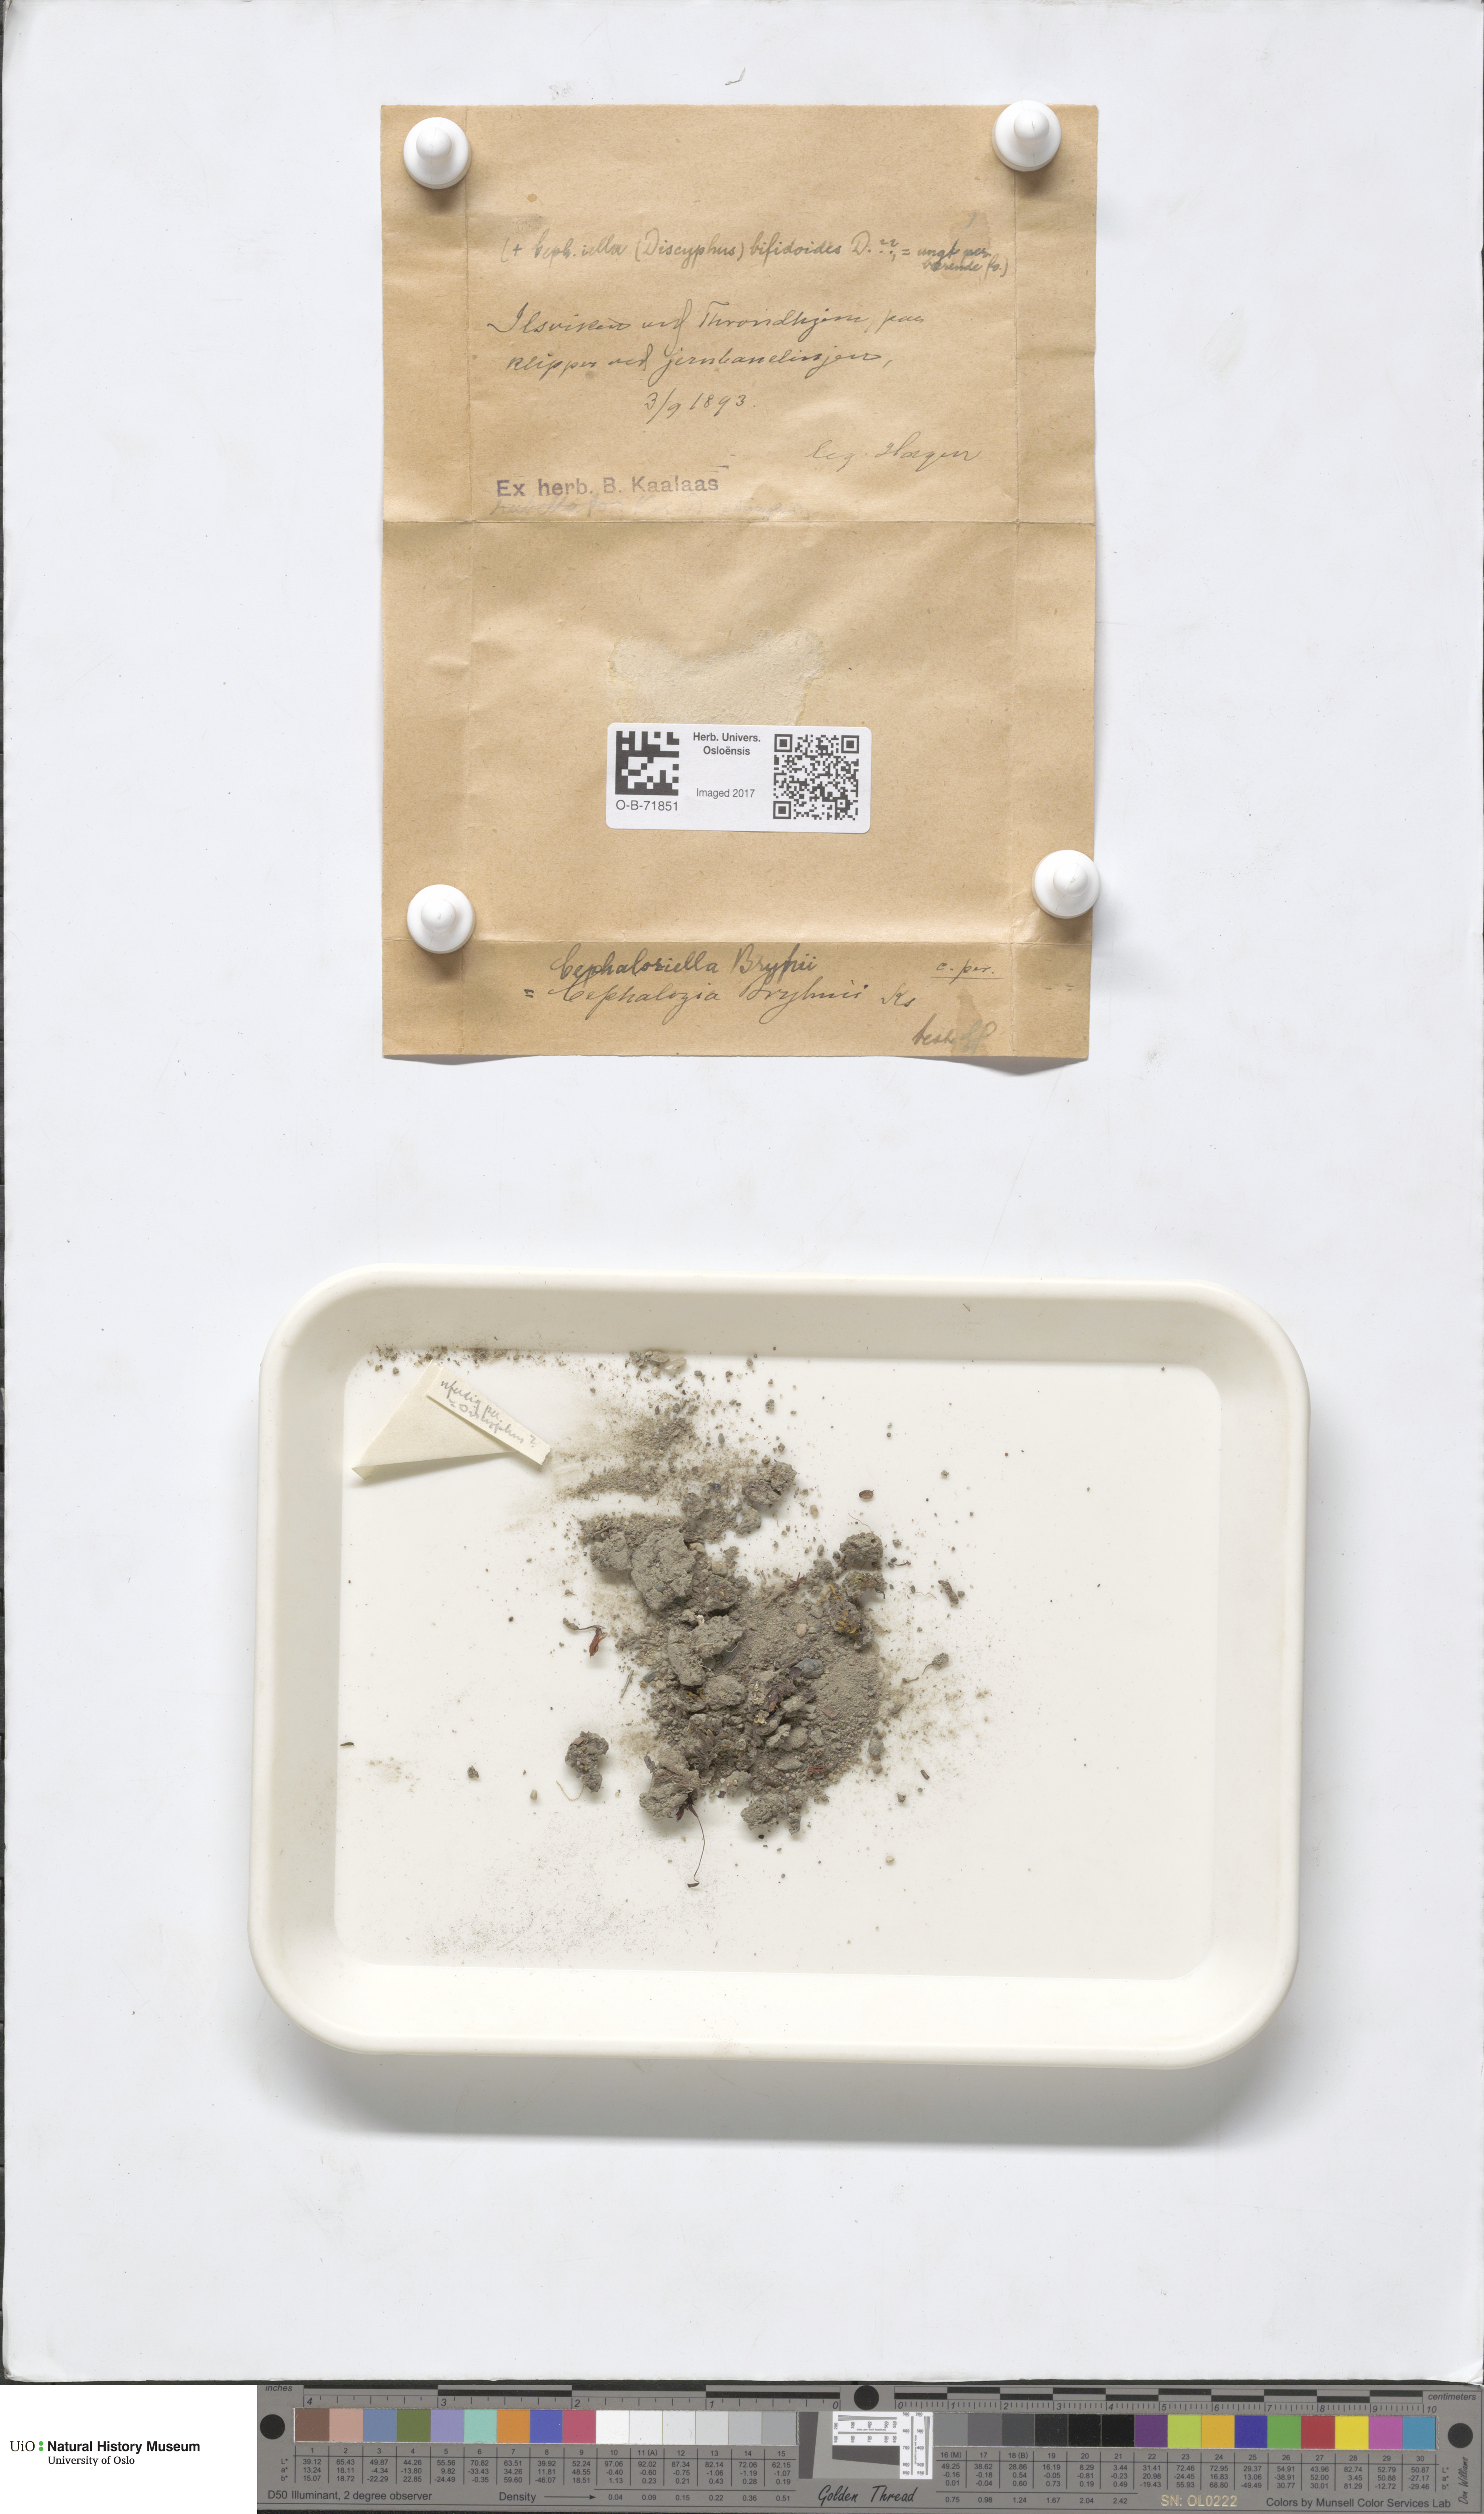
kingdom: Plantae
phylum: Marchantiophyta
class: Jungermanniopsida
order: Jungermanniales
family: Cephaloziellaceae
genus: Cephaloziella
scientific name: Cephaloziella rubella
